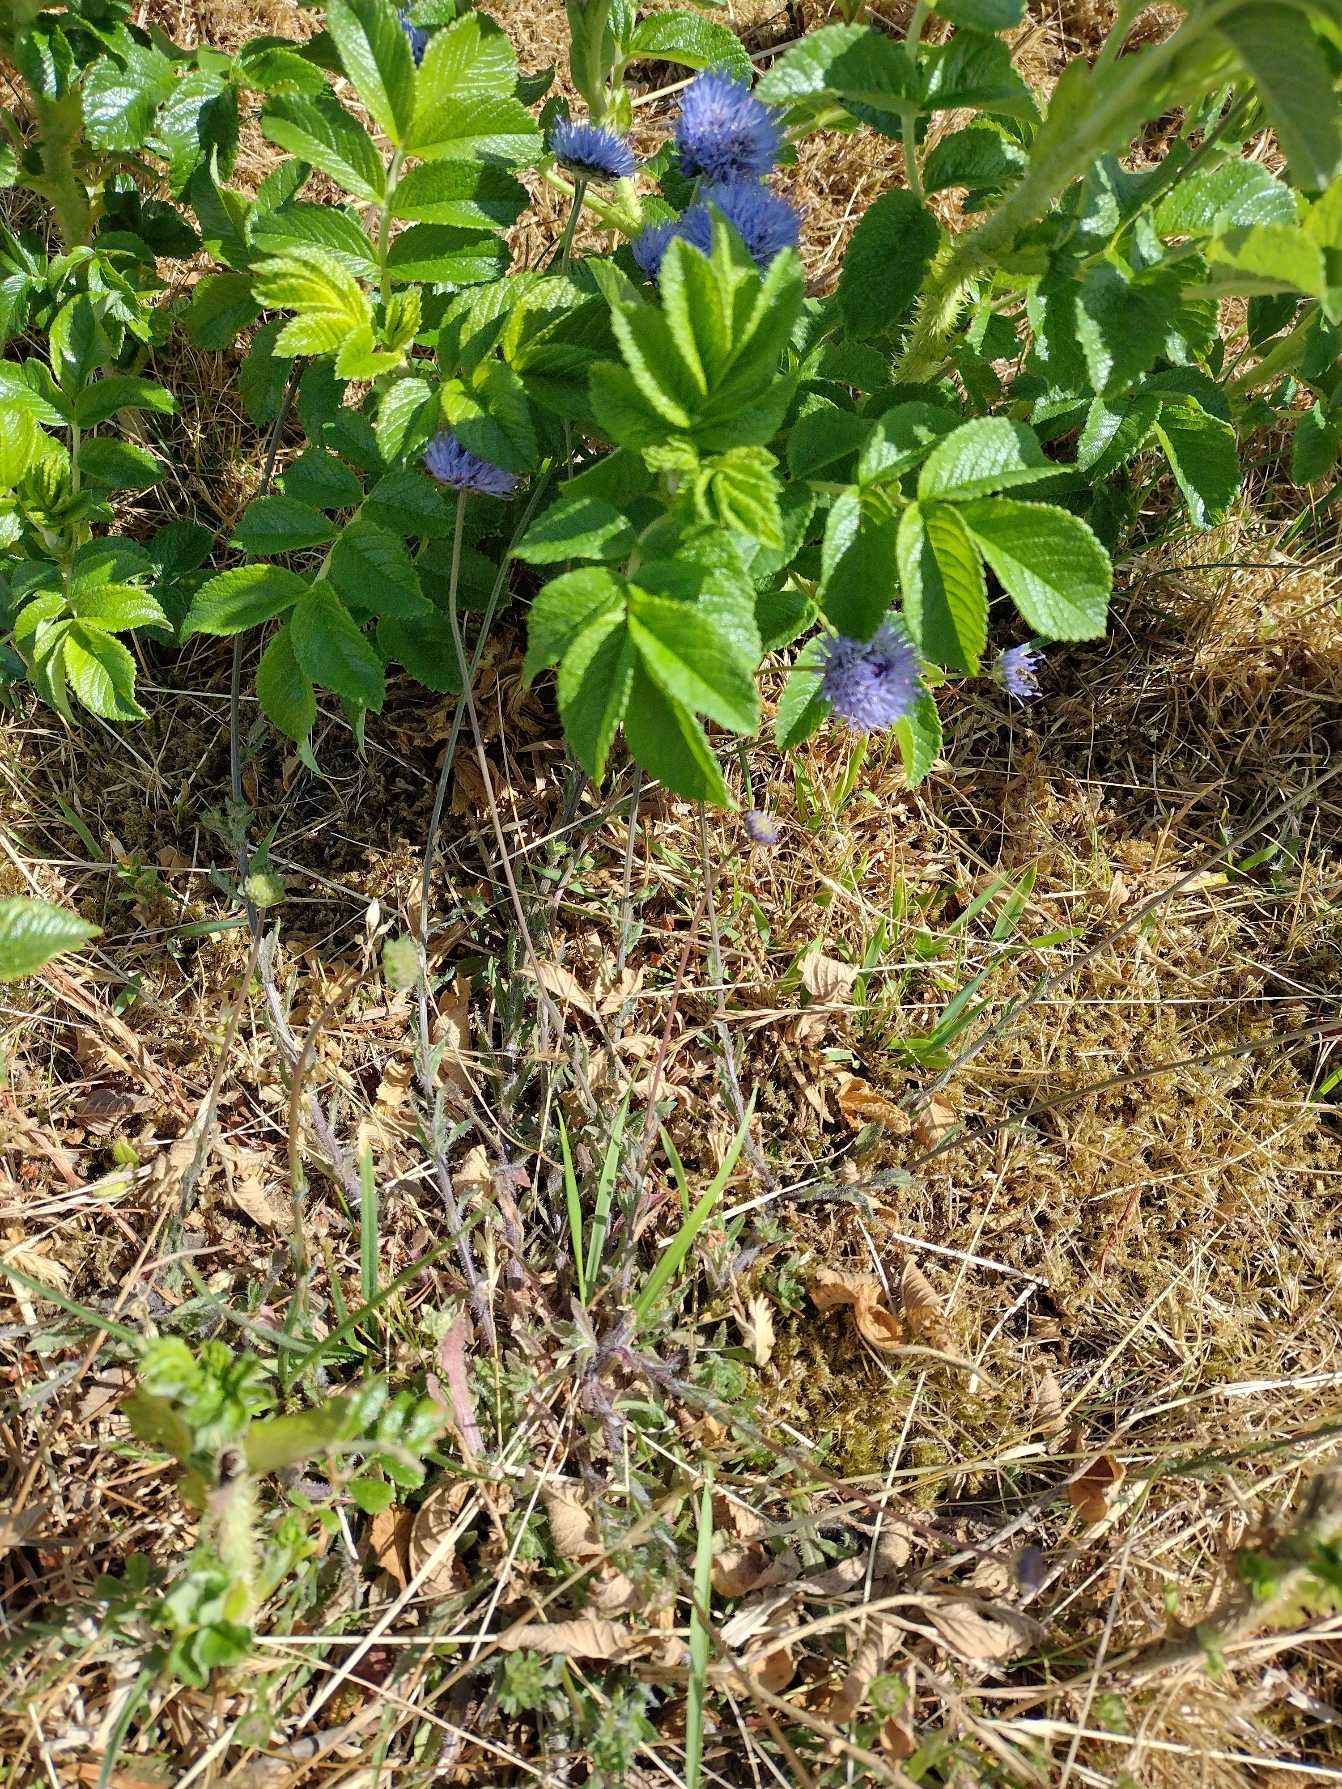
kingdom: Plantae
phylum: Tracheophyta
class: Magnoliopsida
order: Asterales
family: Campanulaceae
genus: Jasione
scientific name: Jasione montana
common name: Blåmunke
